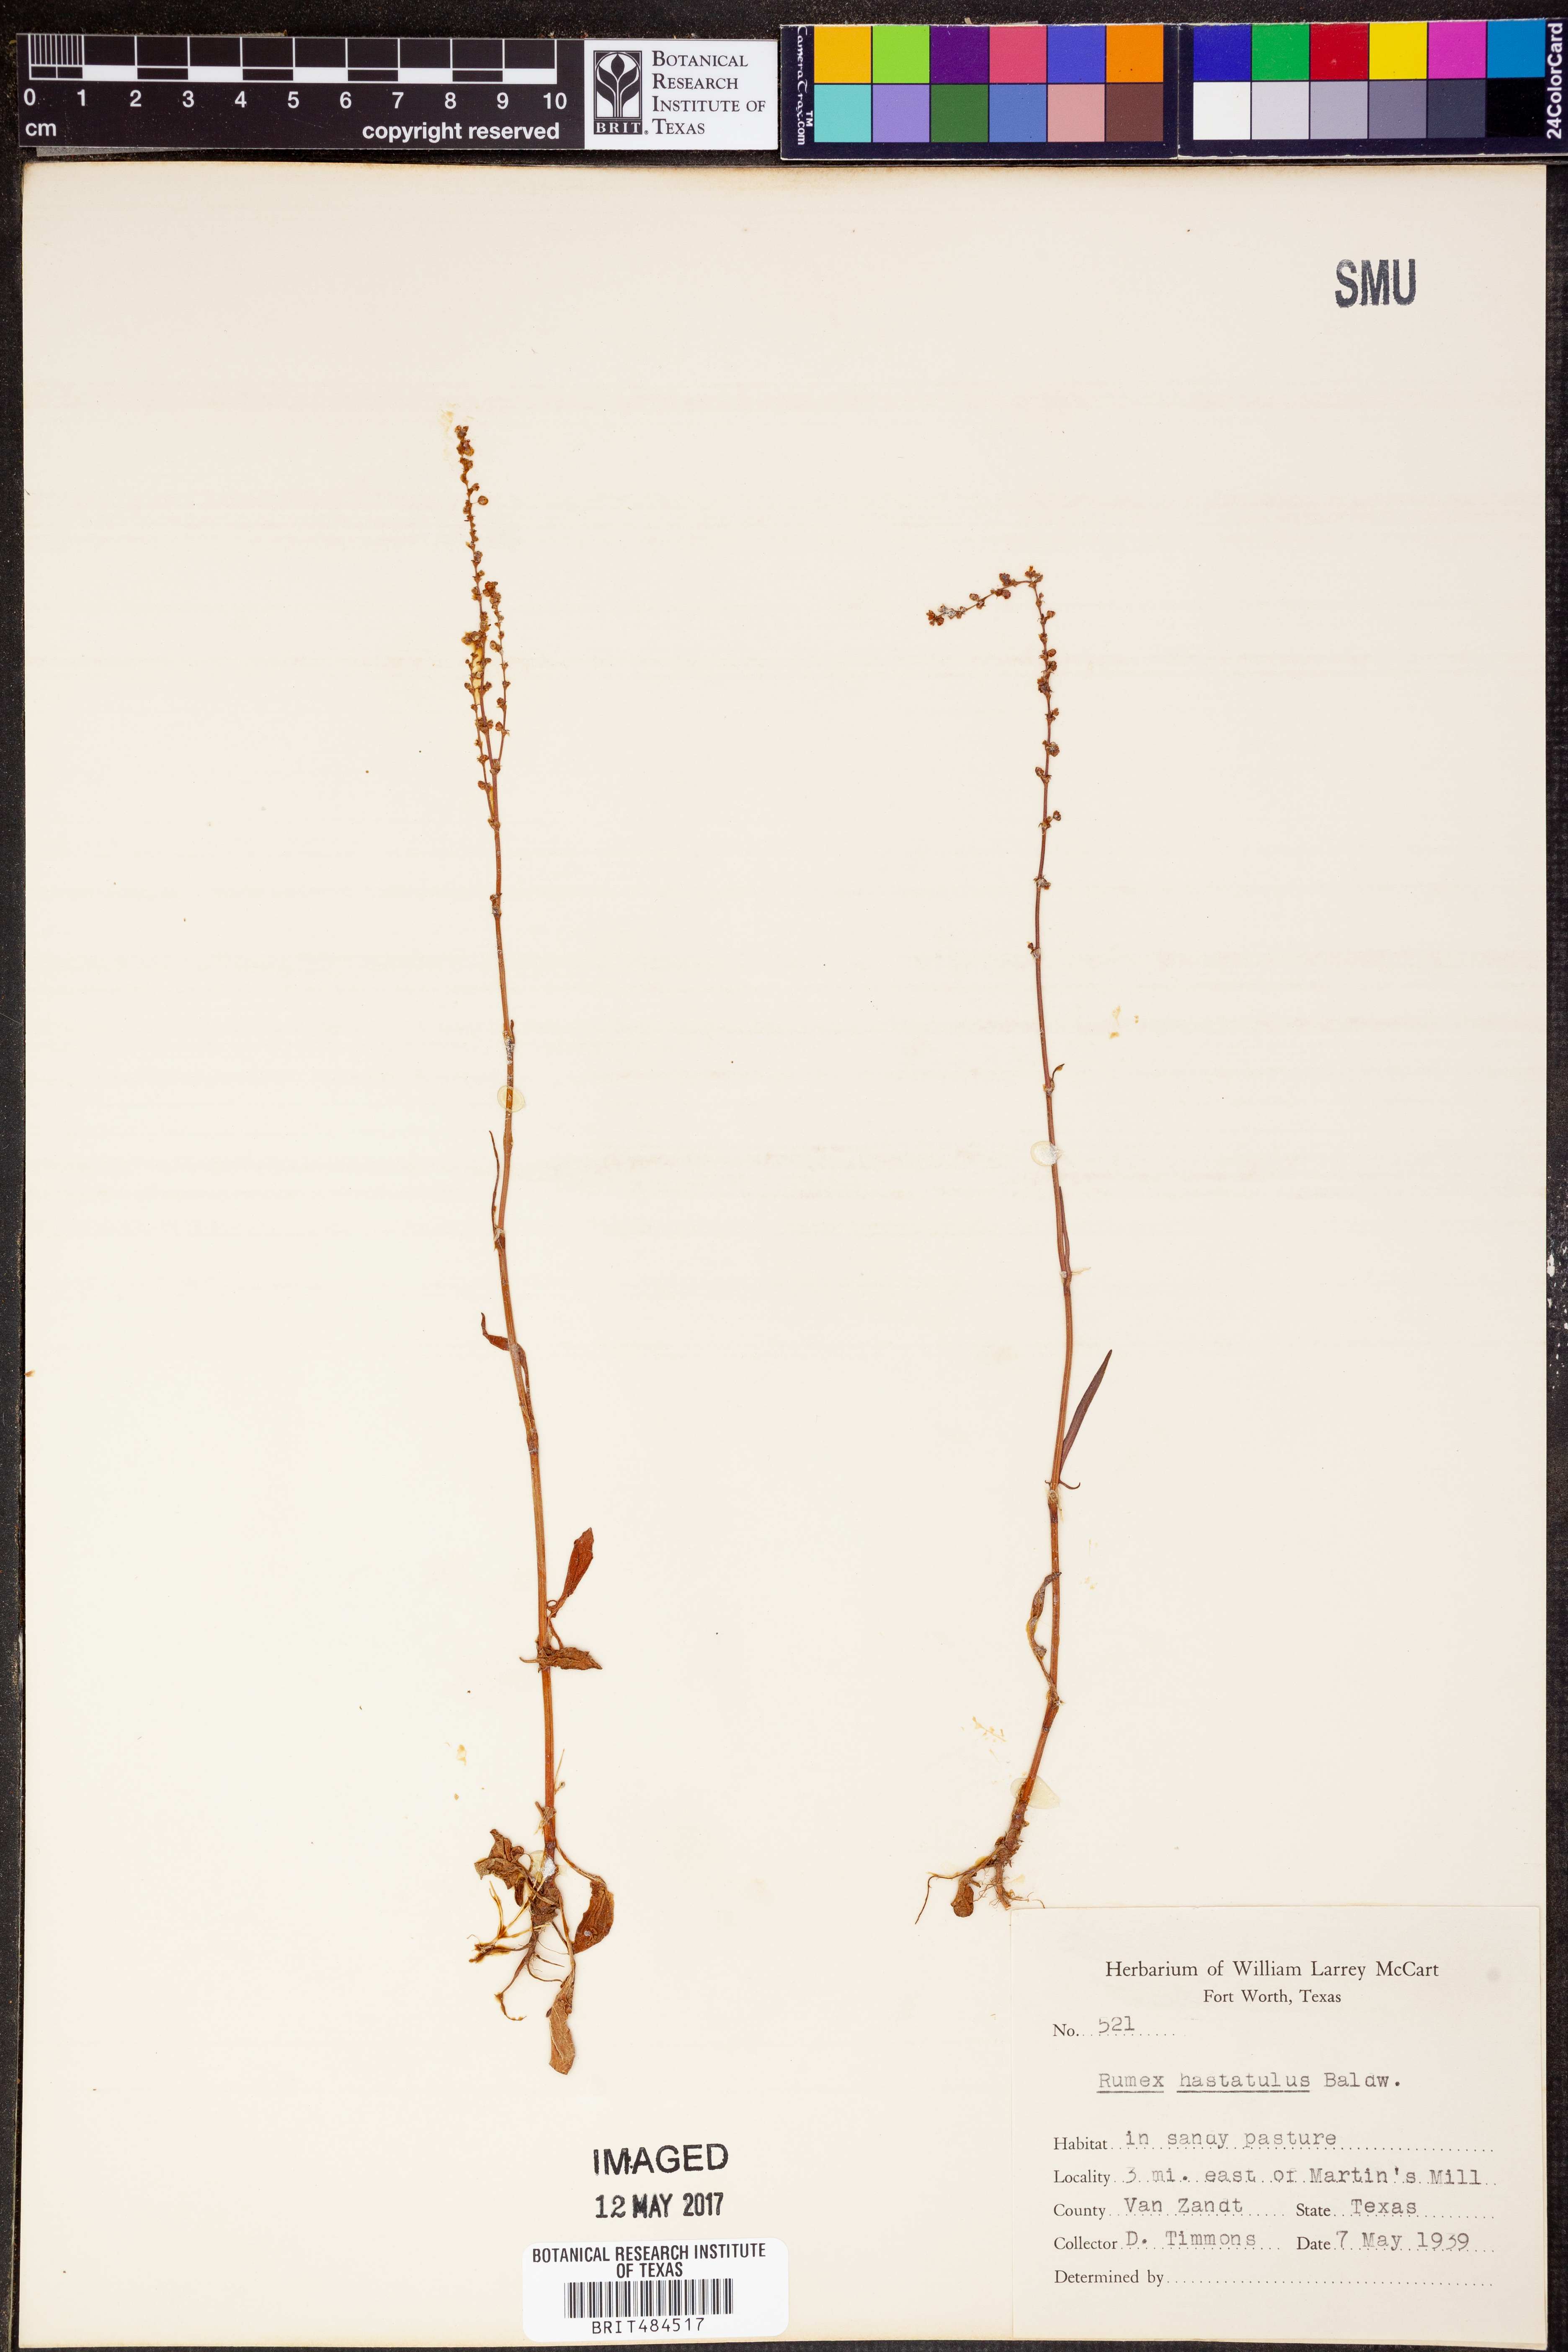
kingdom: Plantae
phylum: Tracheophyta
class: Magnoliopsida
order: Caryophyllales
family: Polygonaceae
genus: Rumex
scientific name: Rumex hastatulus
